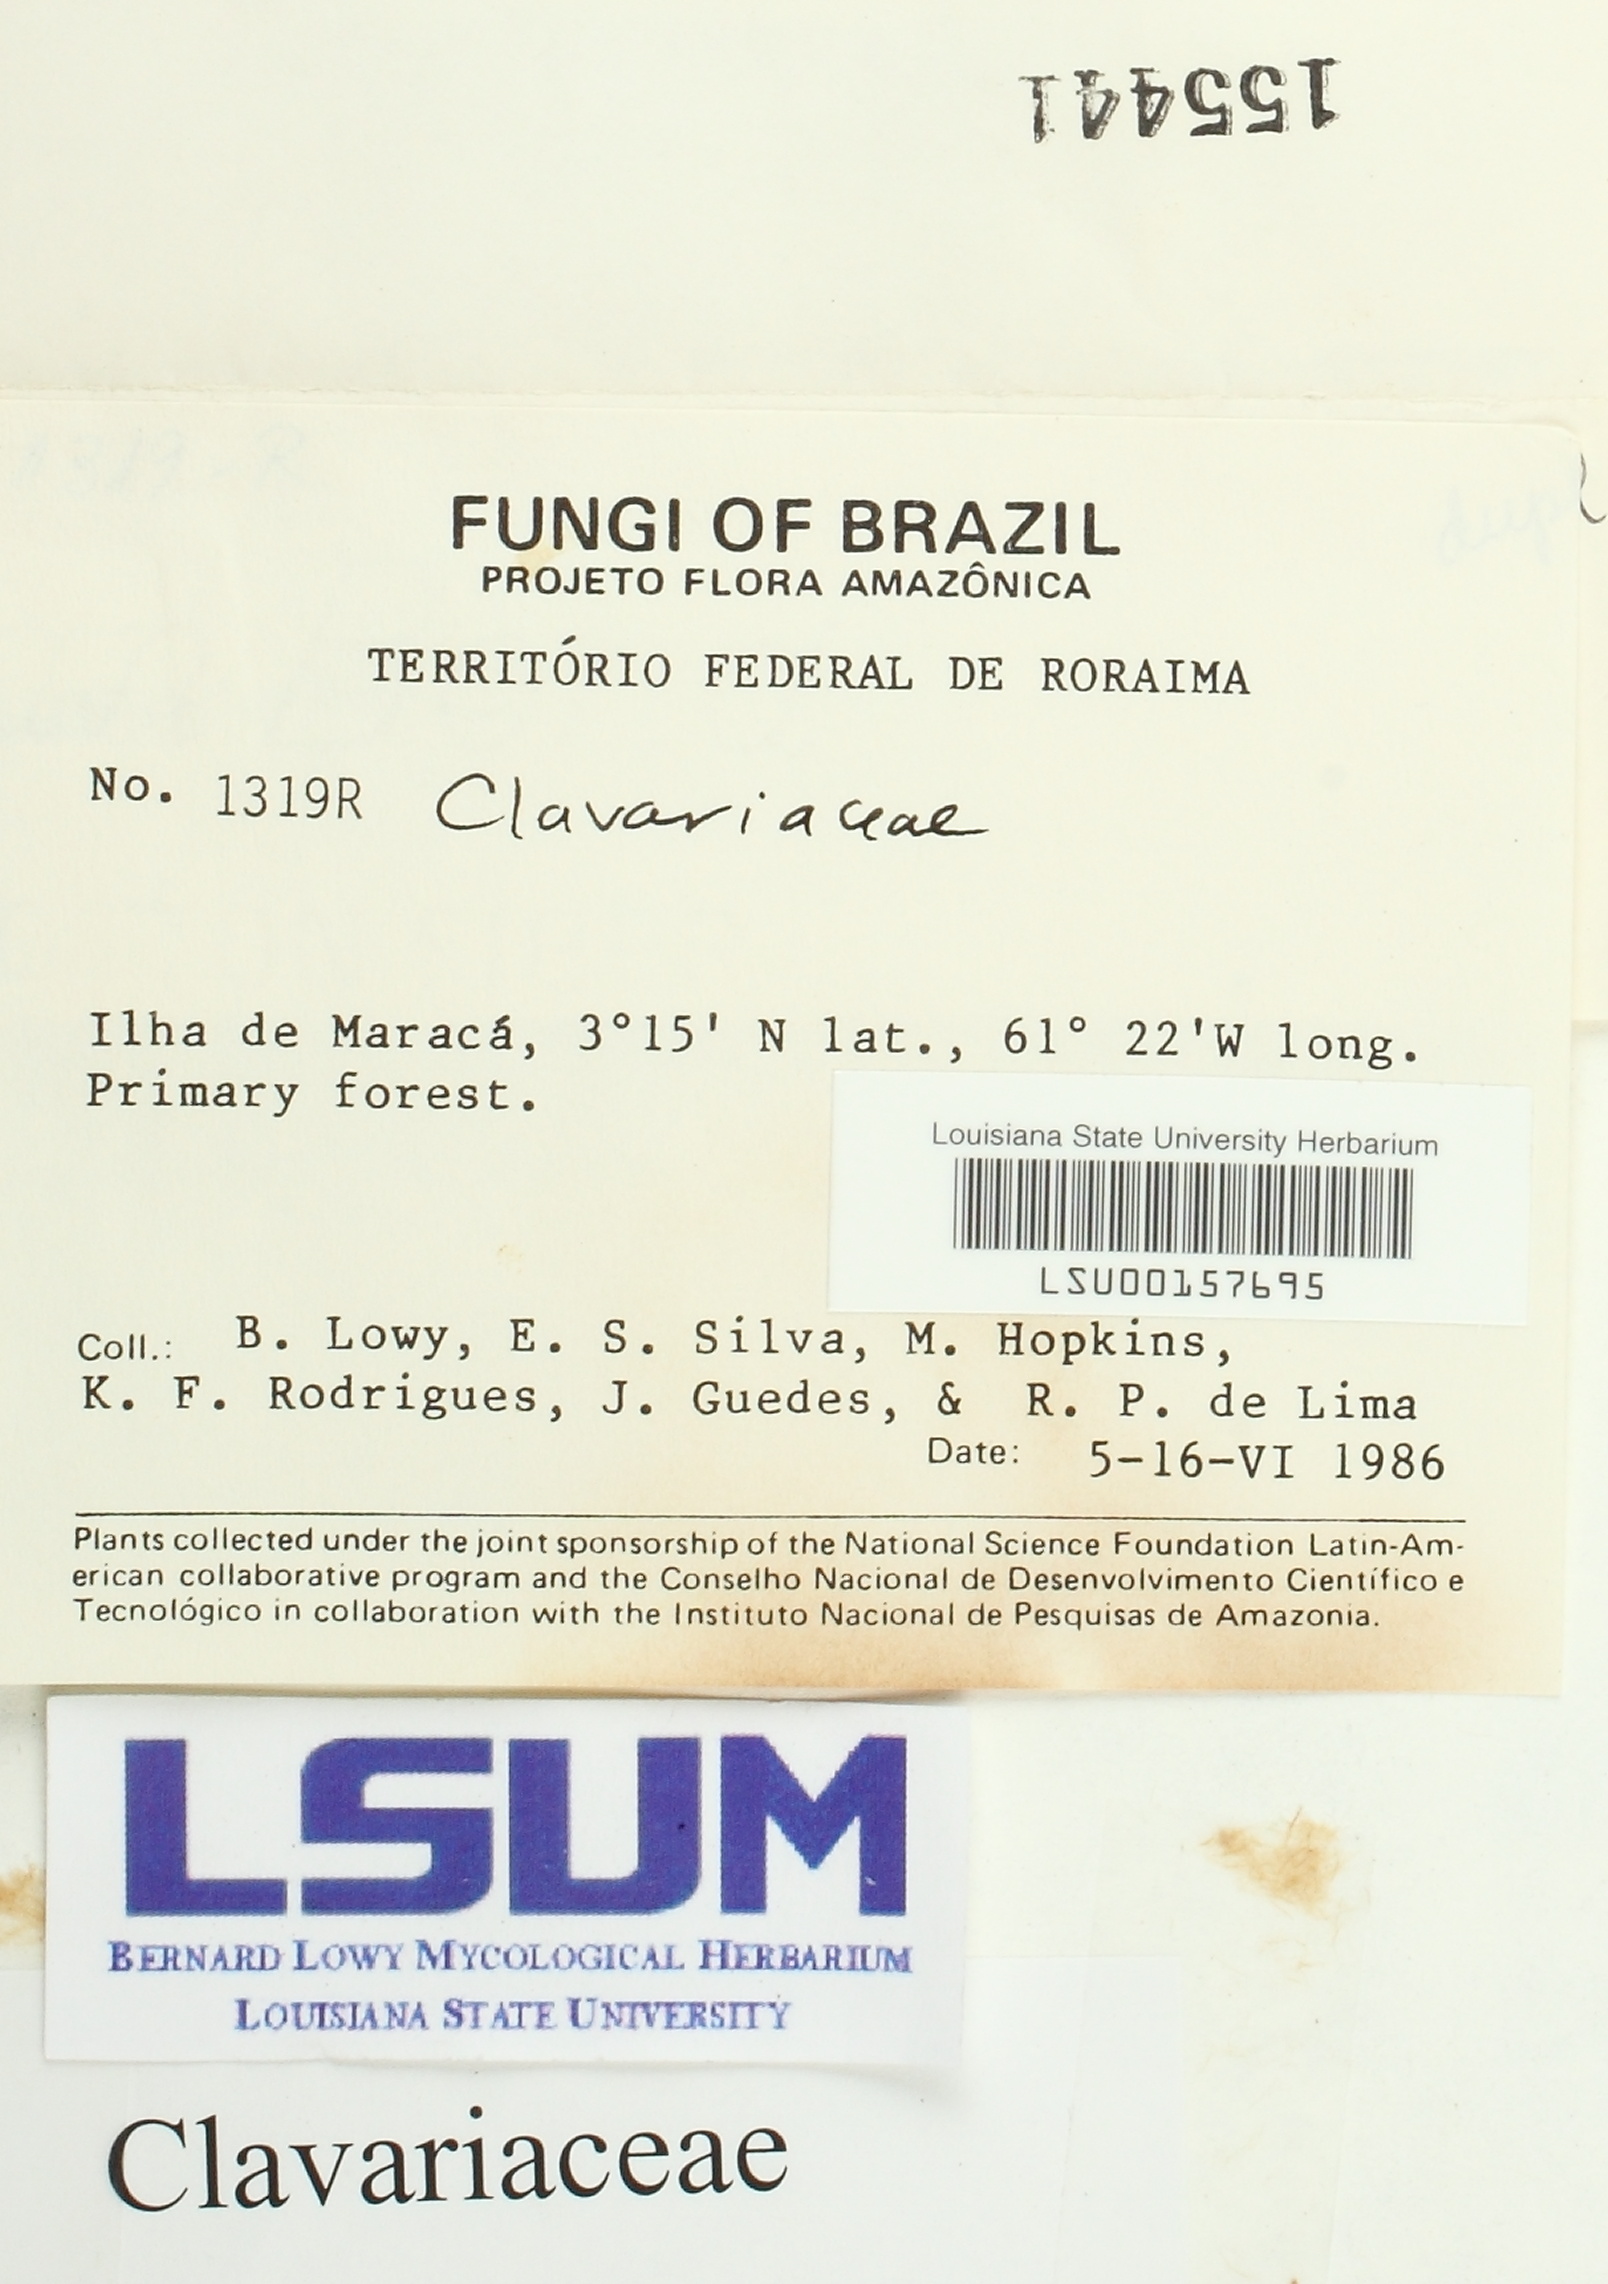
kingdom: Fungi
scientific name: Fungi
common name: Fungi
